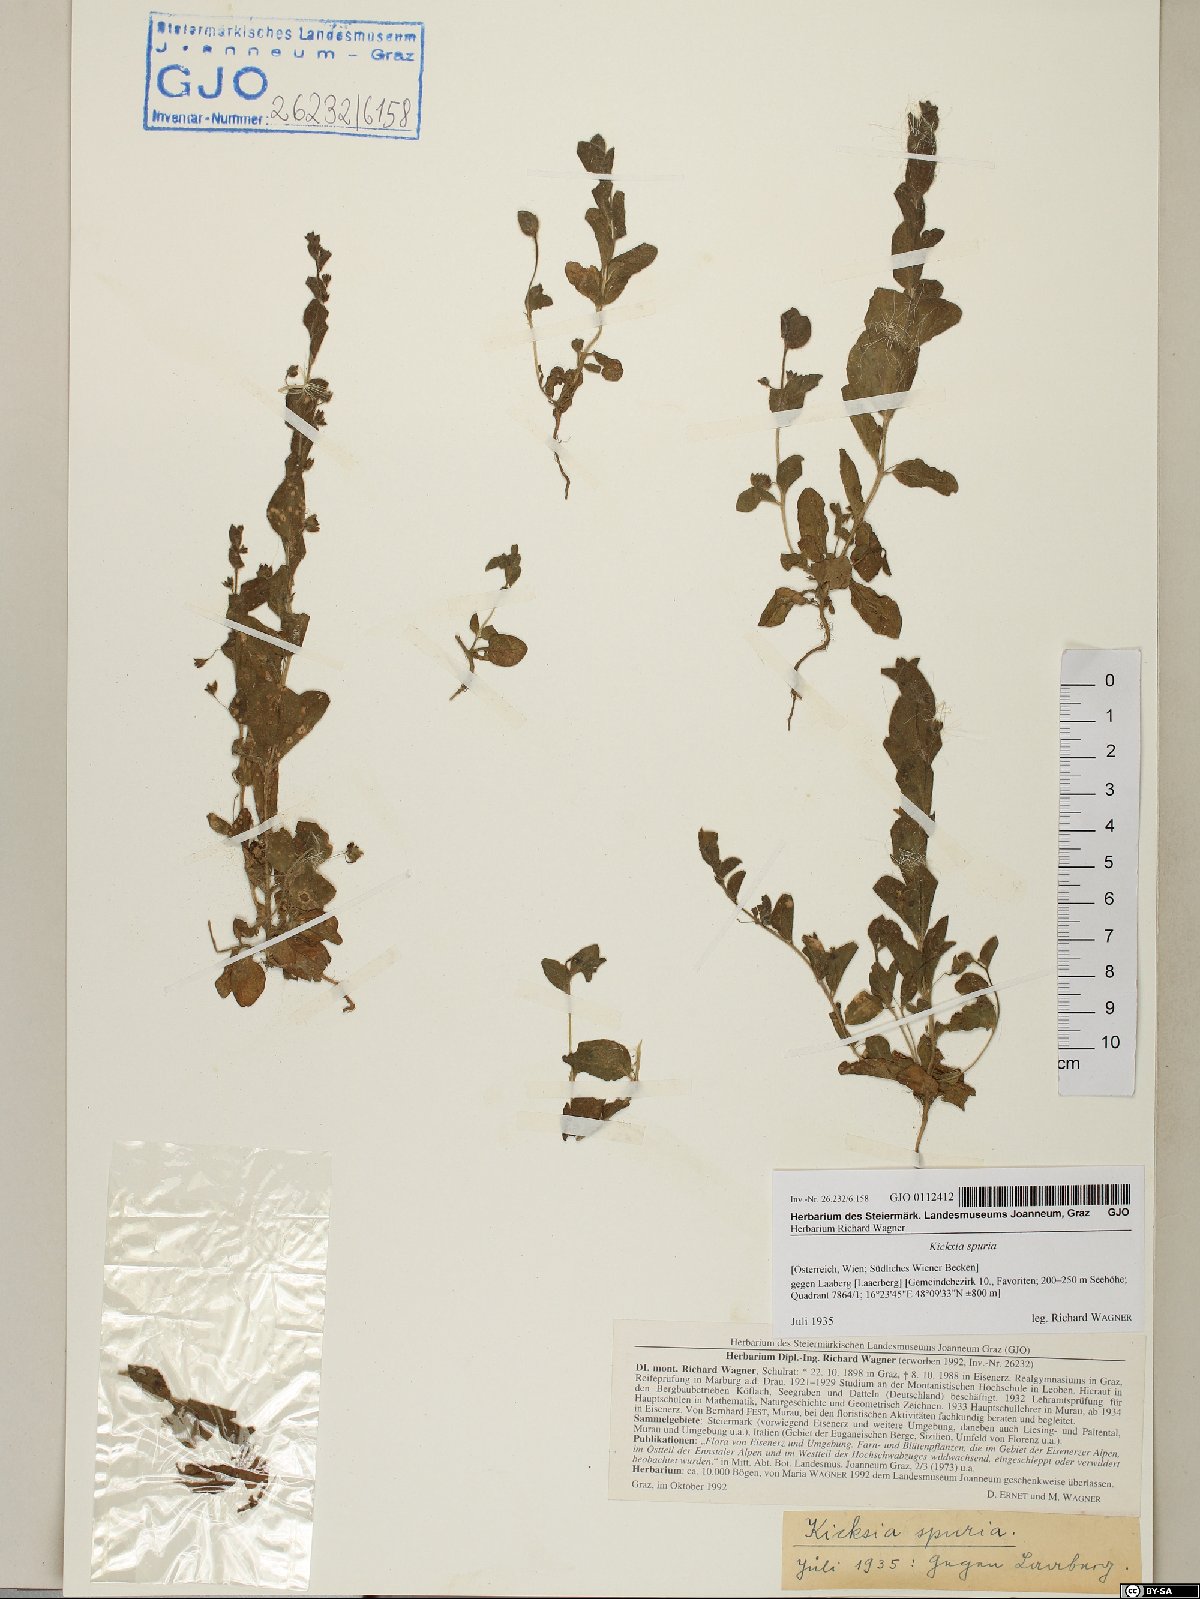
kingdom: Plantae
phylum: Tracheophyta
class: Magnoliopsida
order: Lamiales
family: Plantaginaceae
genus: Kickxia
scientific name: Kickxia spuria
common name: Round-leaved fluellen
